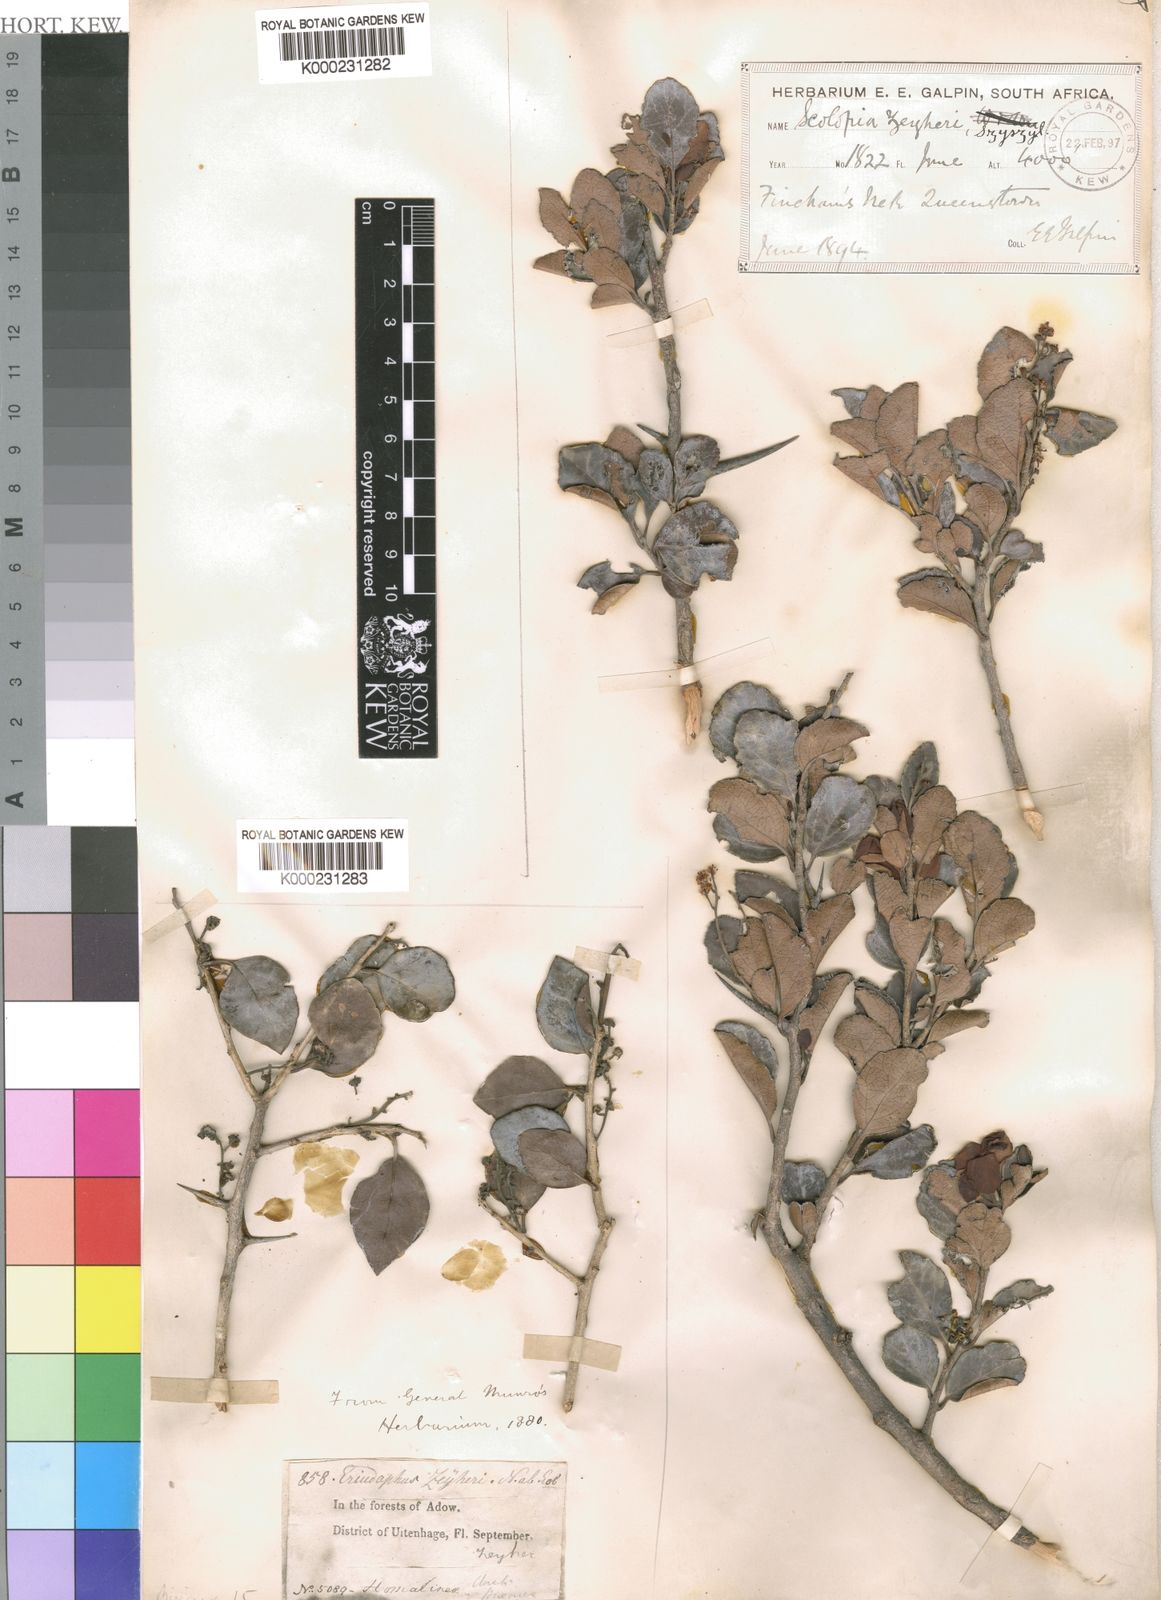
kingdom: Plantae
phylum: Tracheophyta
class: Magnoliopsida
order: Malpighiales
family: Salicaceae
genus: Scolopia
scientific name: Scolopia
